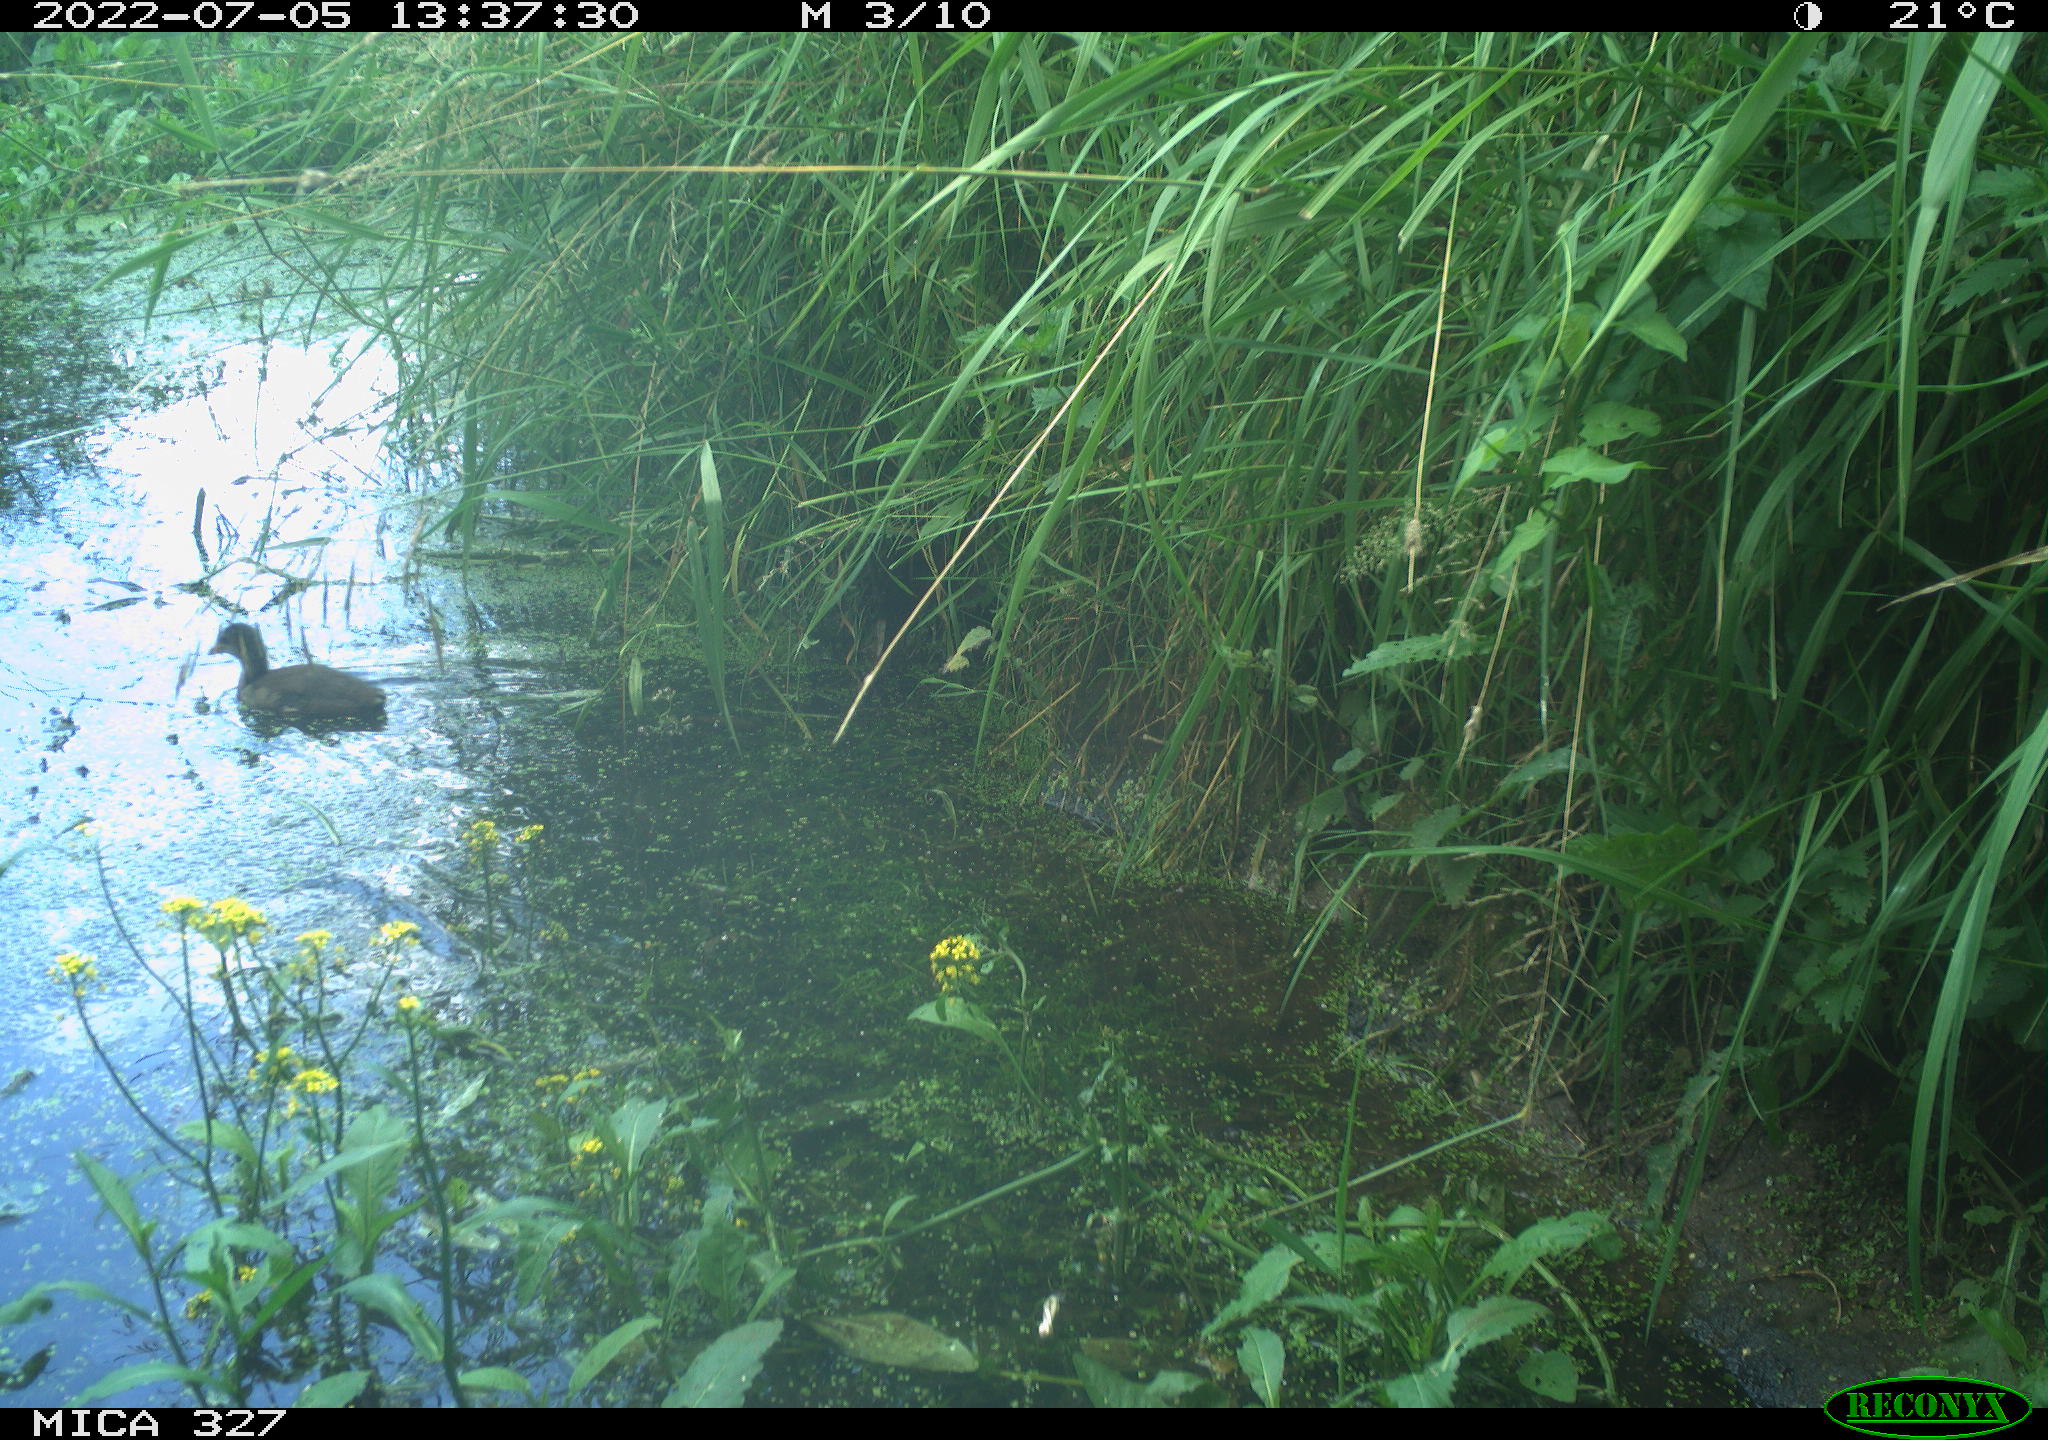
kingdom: Animalia
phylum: Chordata
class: Aves
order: Gruiformes
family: Rallidae
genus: Gallinula
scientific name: Gallinula chloropus
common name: Common moorhen
